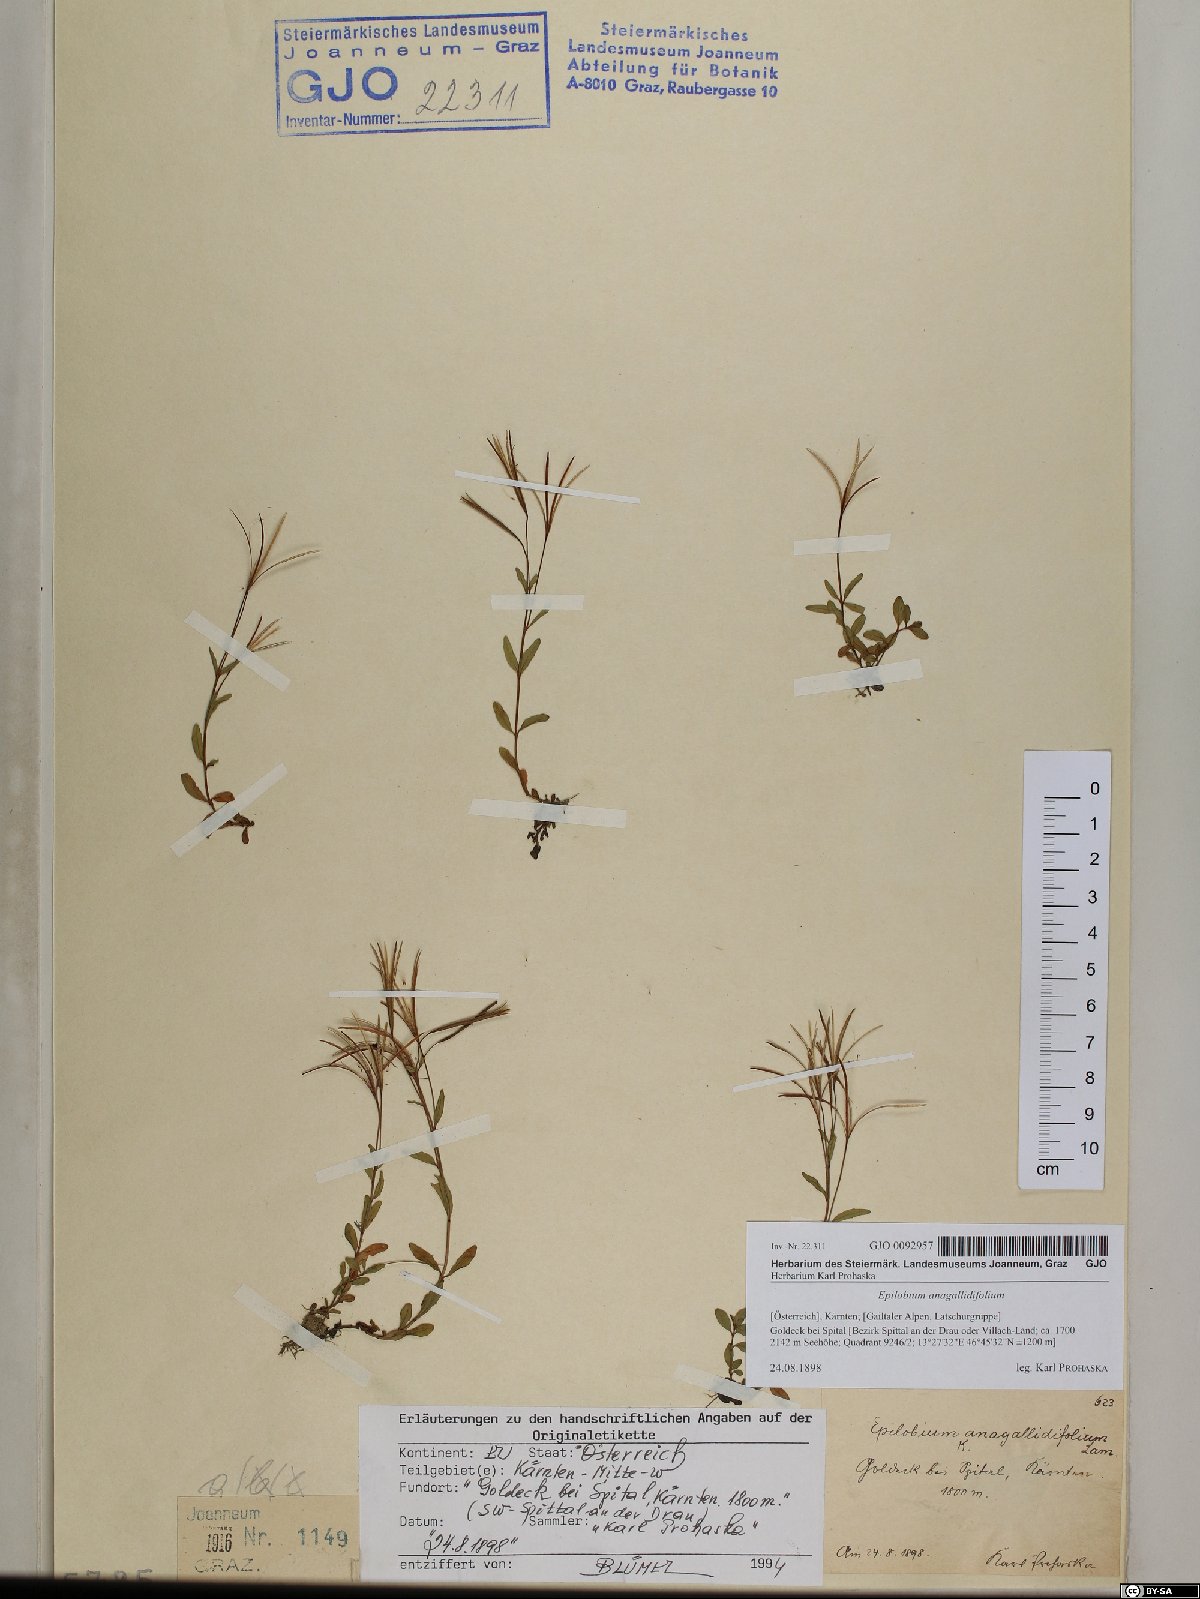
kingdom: Plantae
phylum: Tracheophyta
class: Magnoliopsida
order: Myrtales
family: Onagraceae
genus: Epilobium
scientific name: Epilobium anagallidifolium
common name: Alpine willowherb
